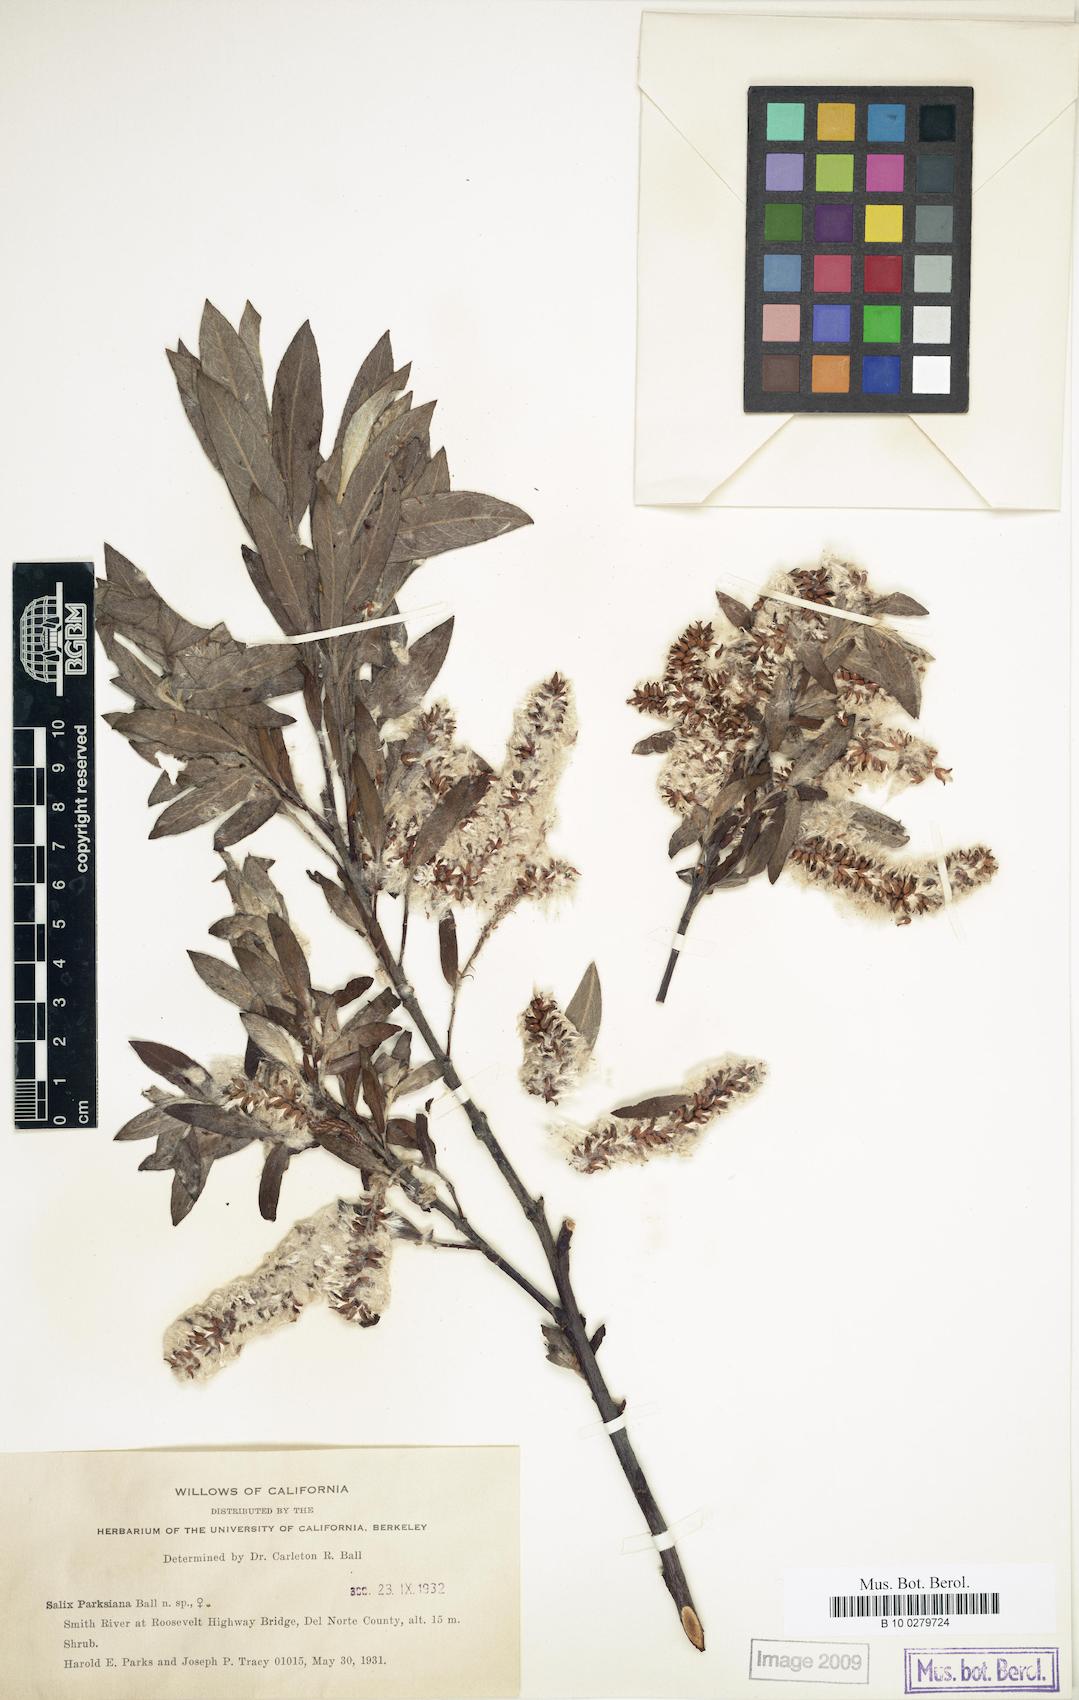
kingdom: Plantae
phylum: Tracheophyta
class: Magnoliopsida
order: Malpighiales
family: Salicaceae
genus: Salix
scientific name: Salix melanopsis
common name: Dusky willow
